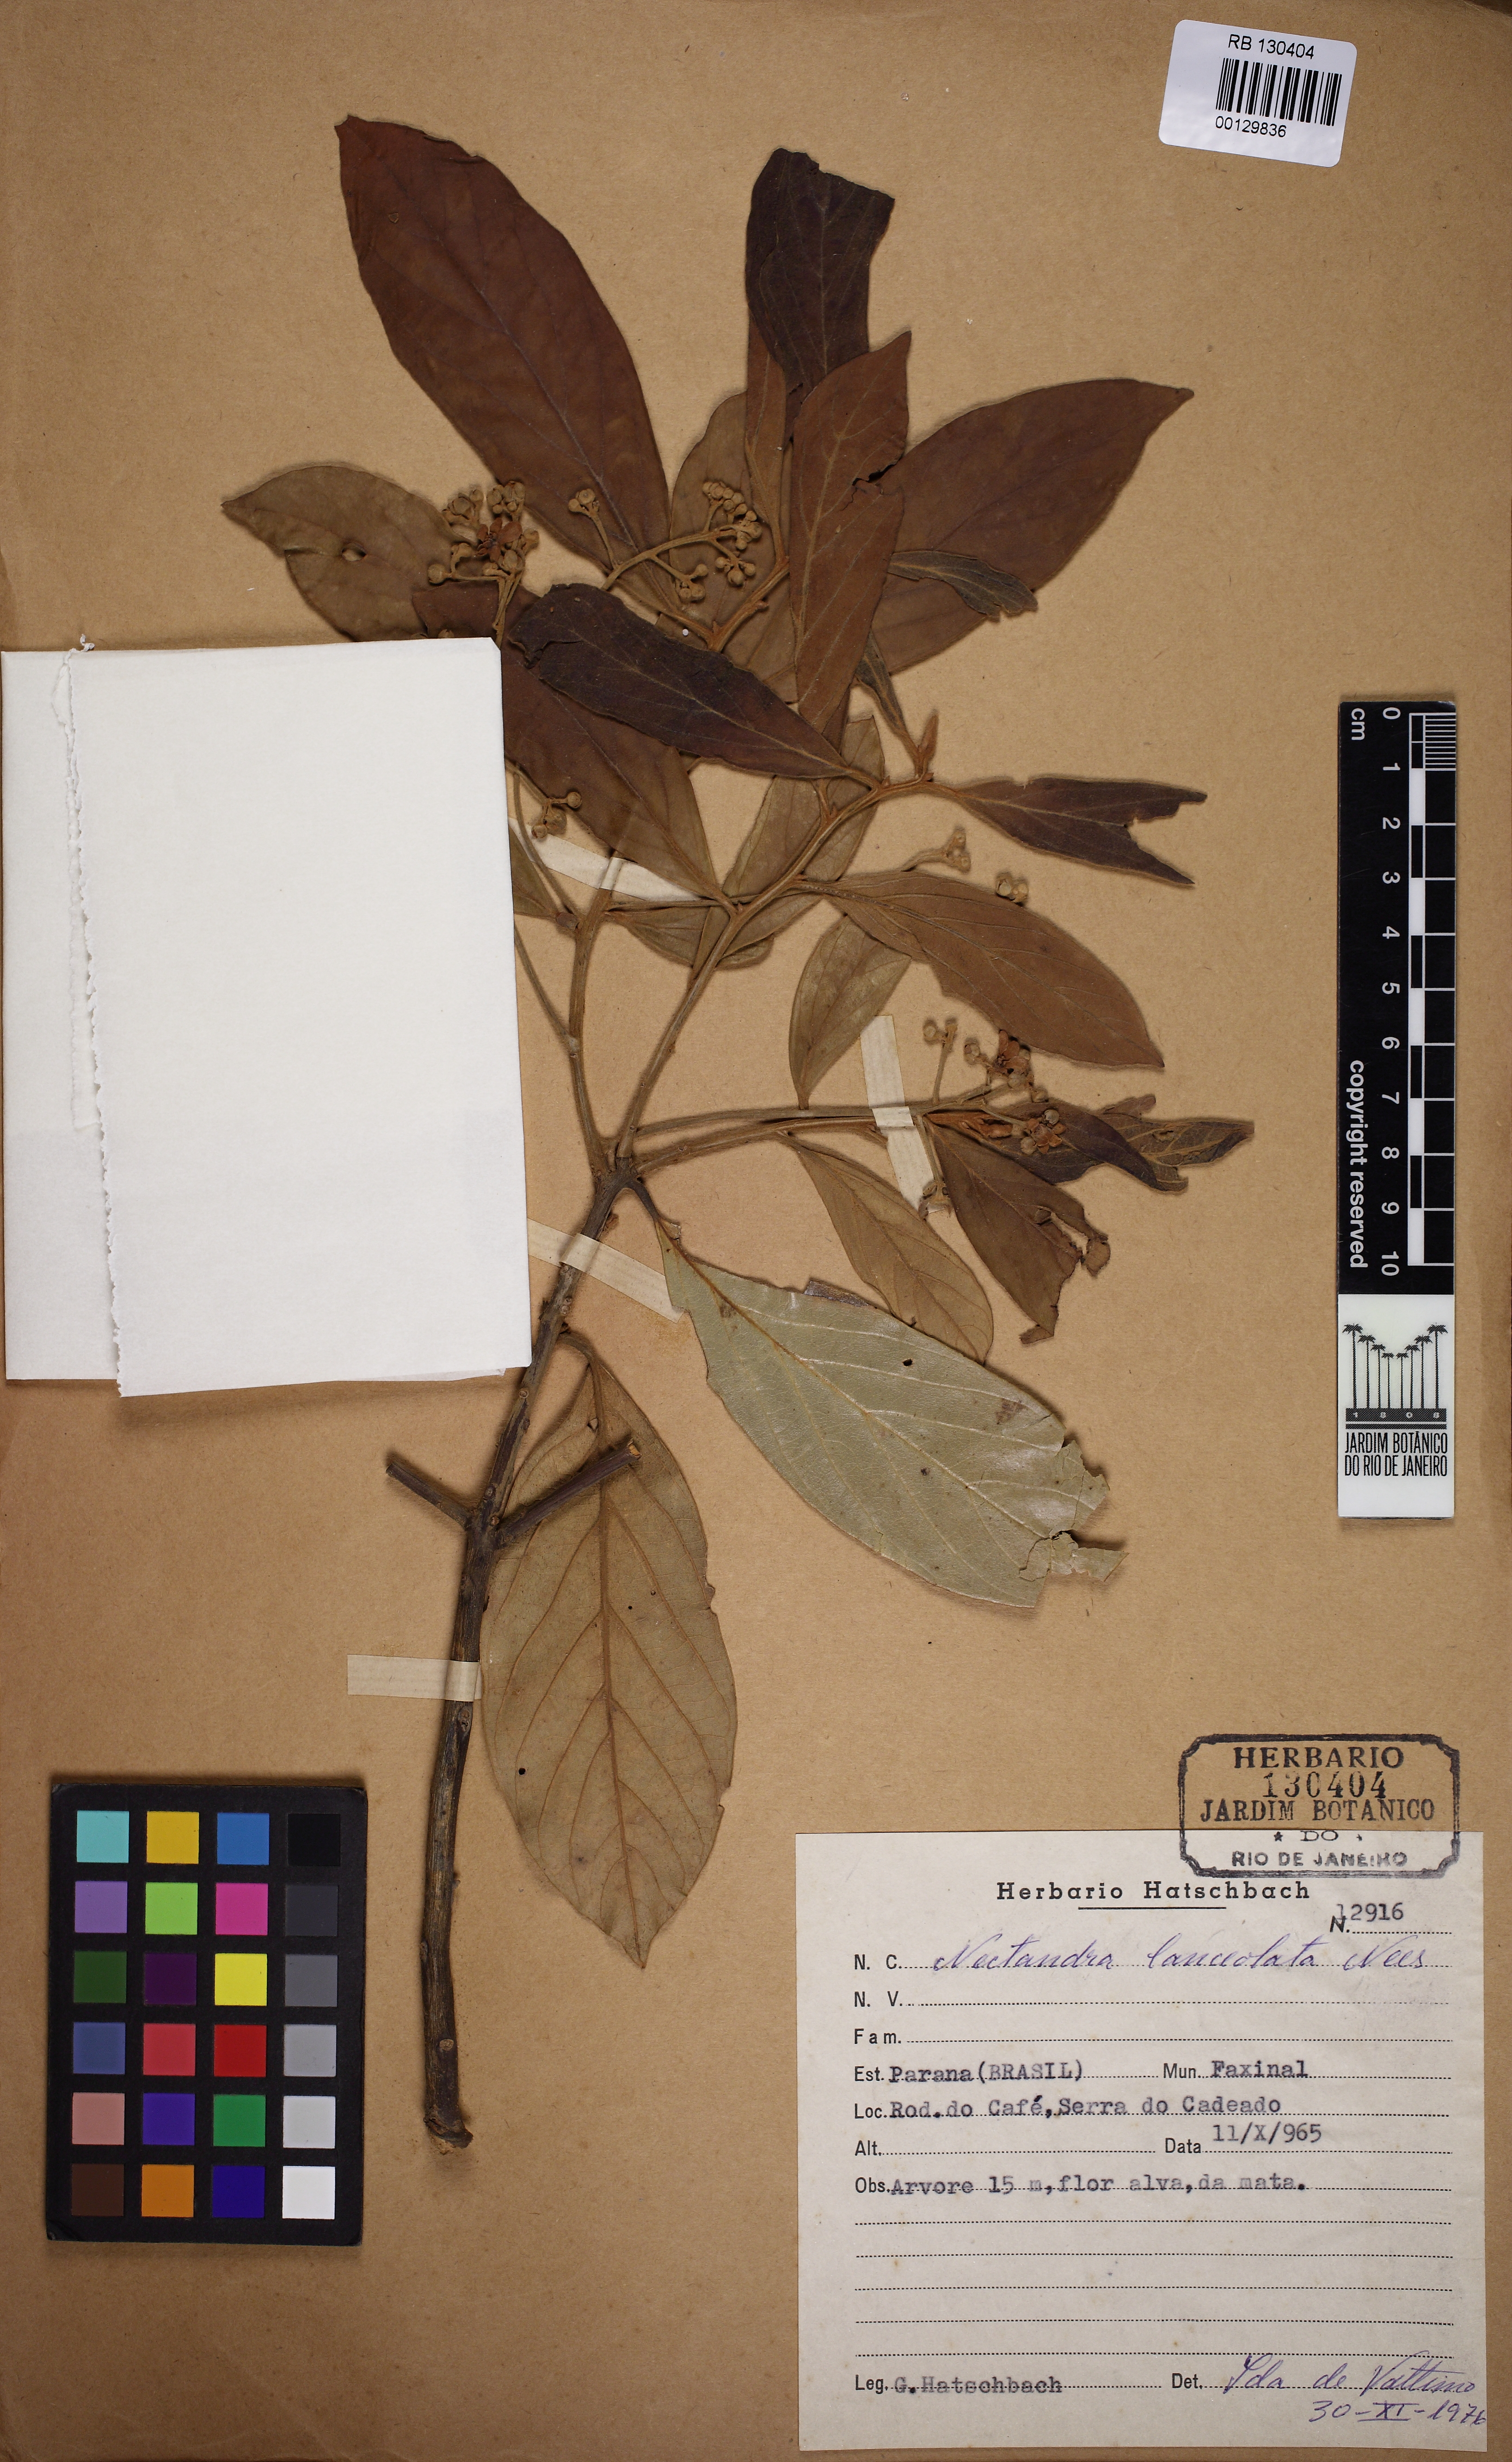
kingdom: Plantae
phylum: Tracheophyta
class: Magnoliopsida
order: Laurales
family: Lauraceae
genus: Nectandra
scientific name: Nectandra lanceolata
